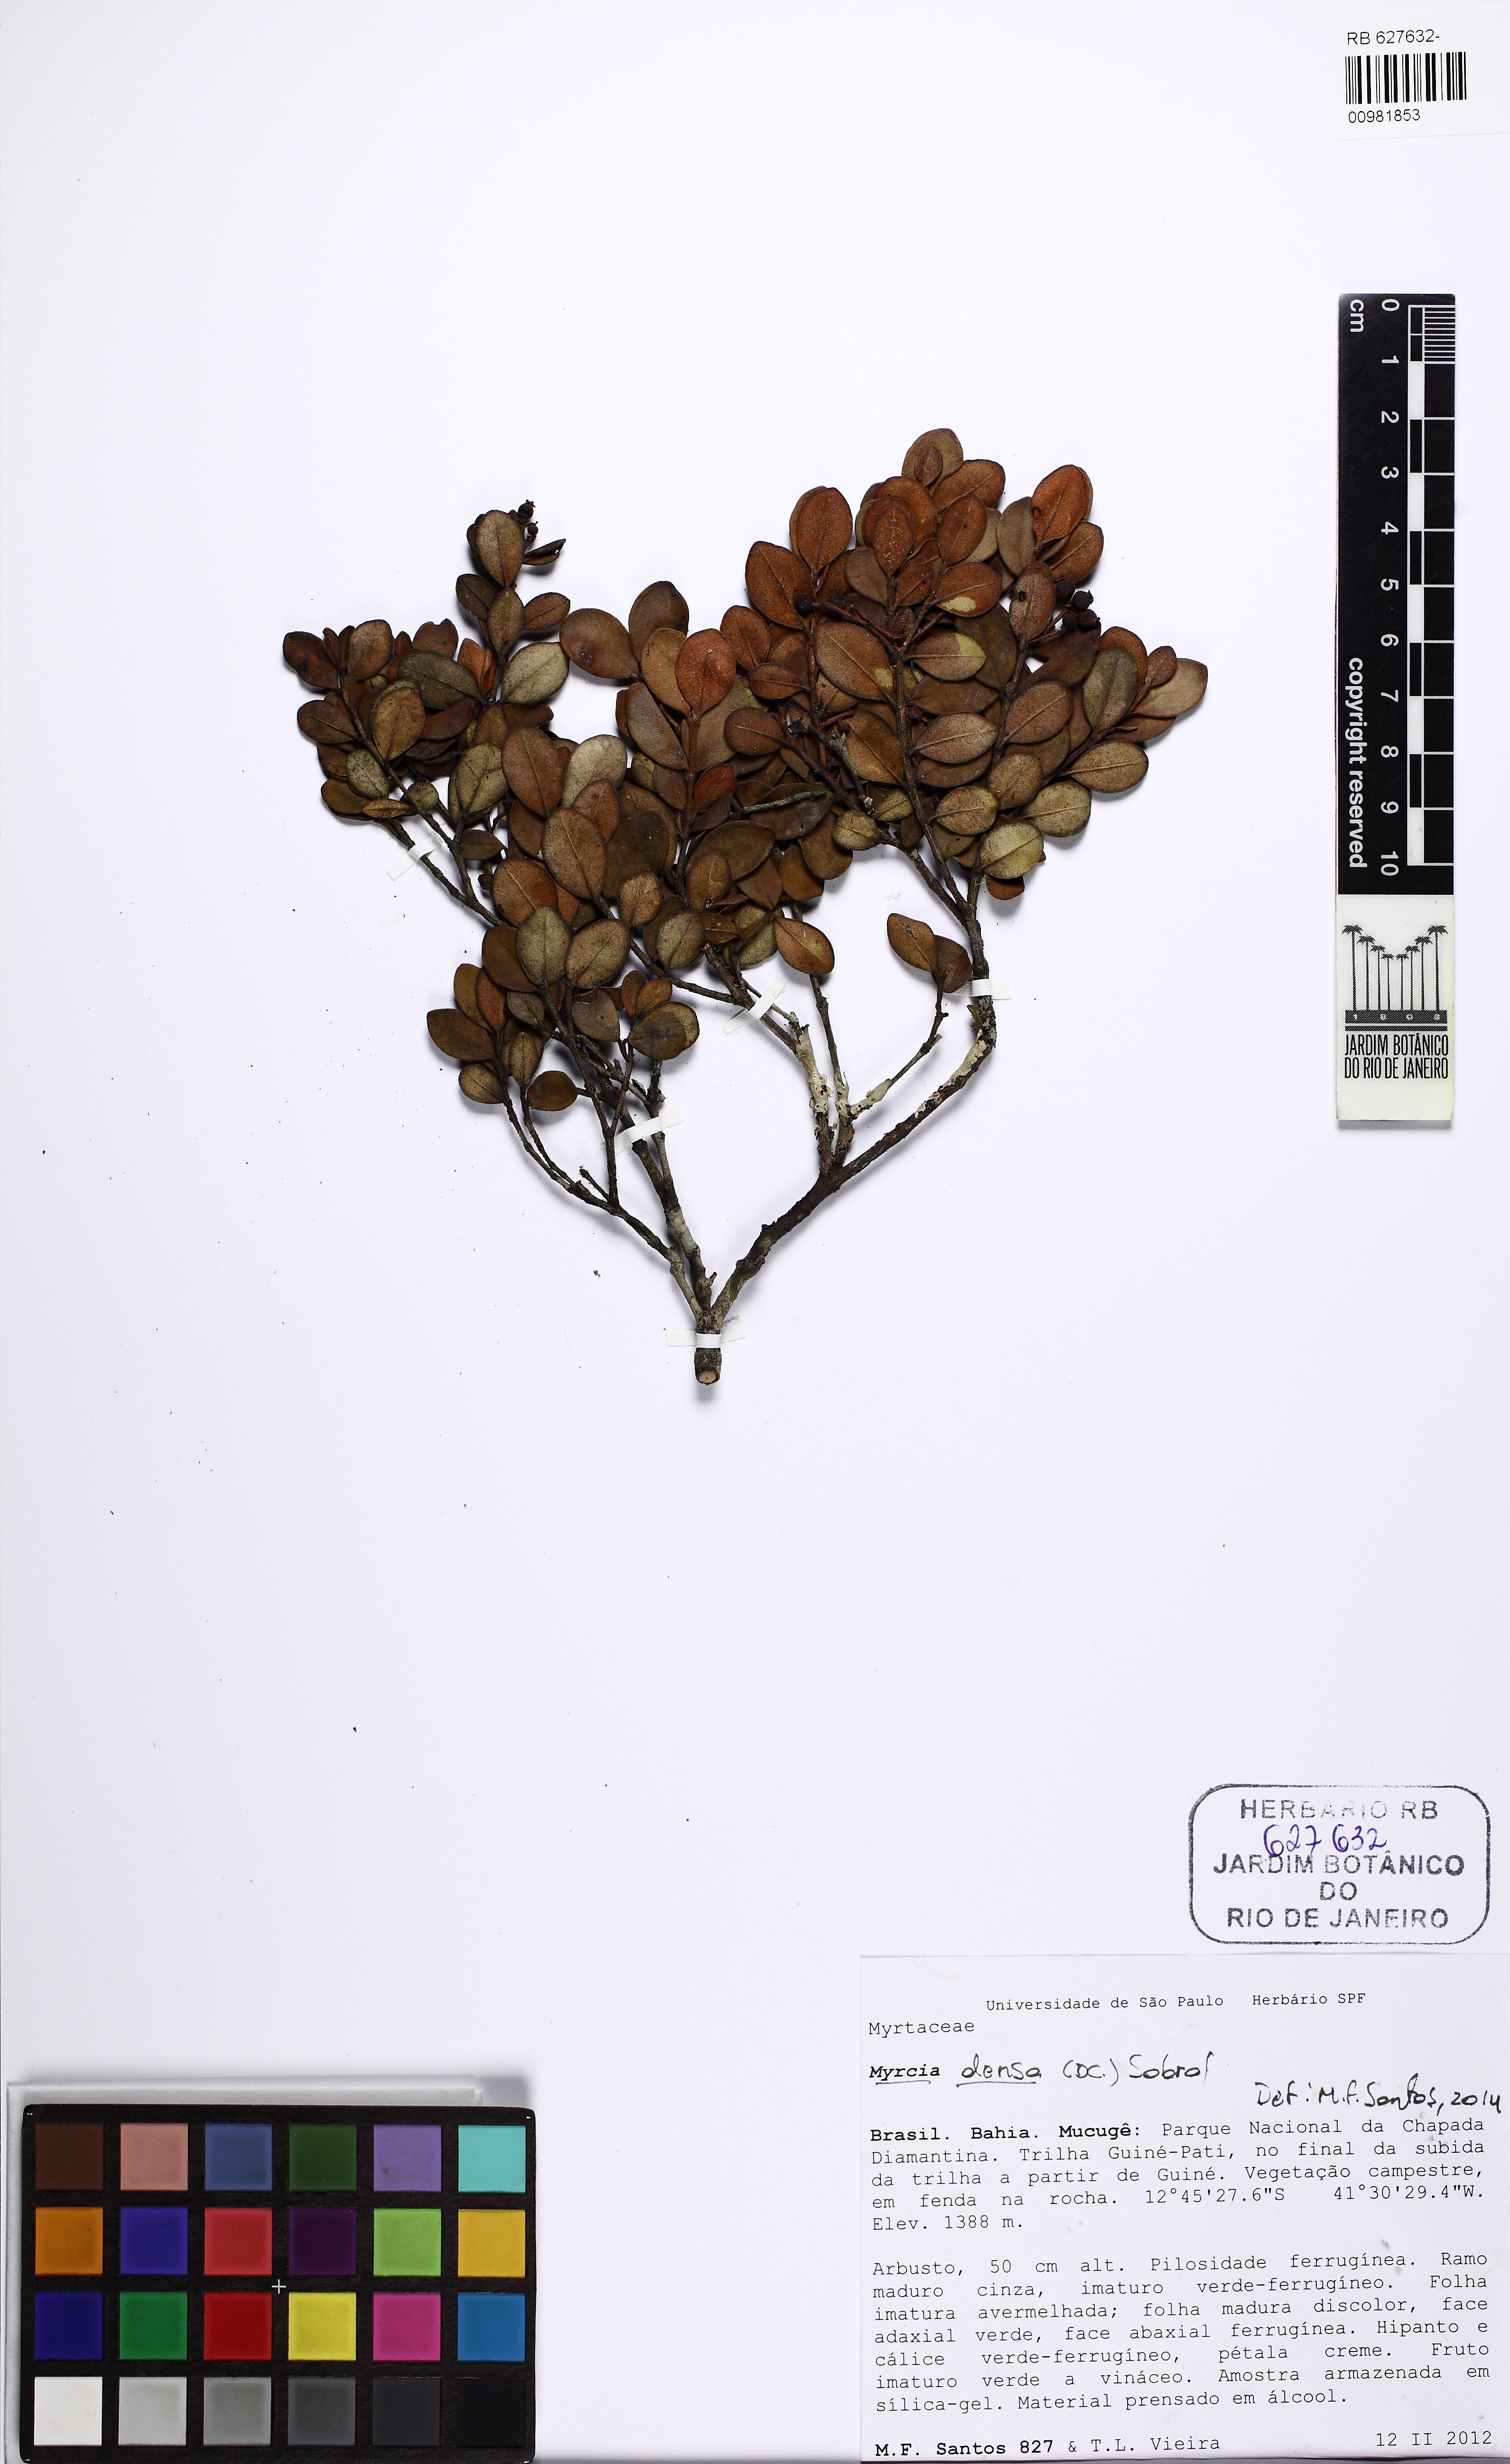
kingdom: Plantae
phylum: Tracheophyta
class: Magnoliopsida
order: Myrtales
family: Myrtaceae
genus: Myrcia
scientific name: Myrcia densa
